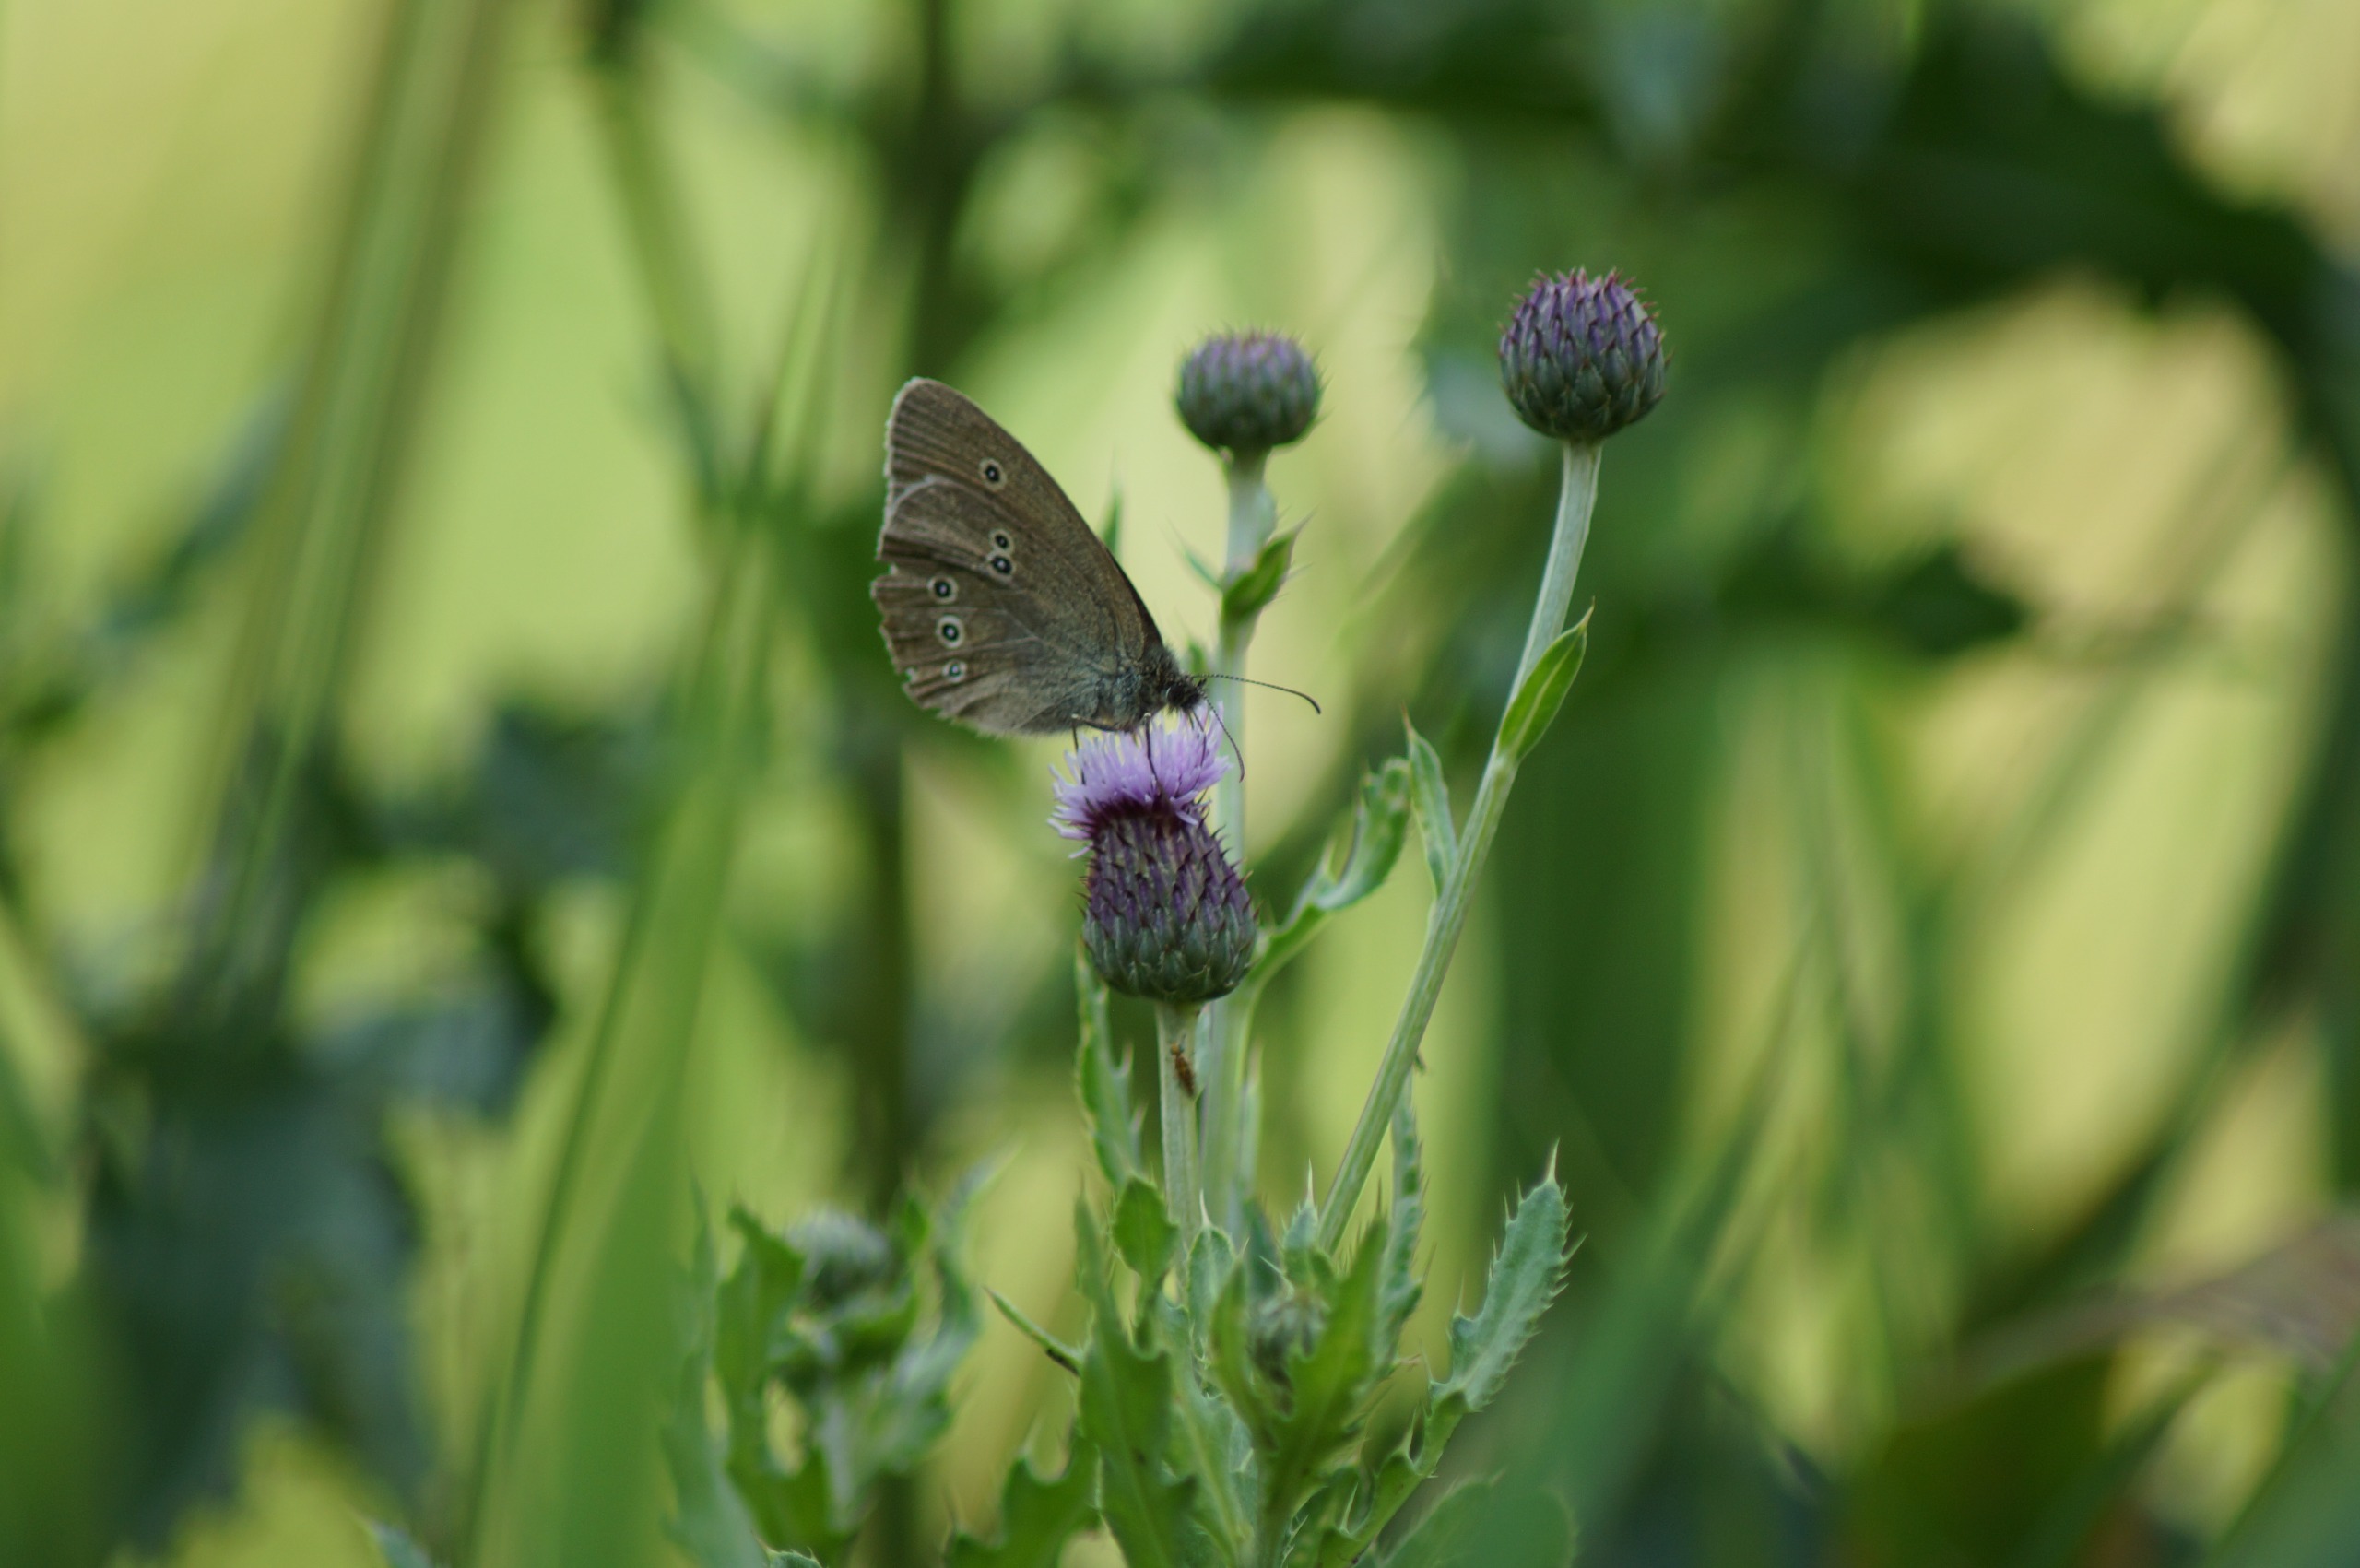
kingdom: Animalia
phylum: Arthropoda
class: Insecta
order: Lepidoptera
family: Nymphalidae
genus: Aphantopus
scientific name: Aphantopus hyperantus
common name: Engrandøje
